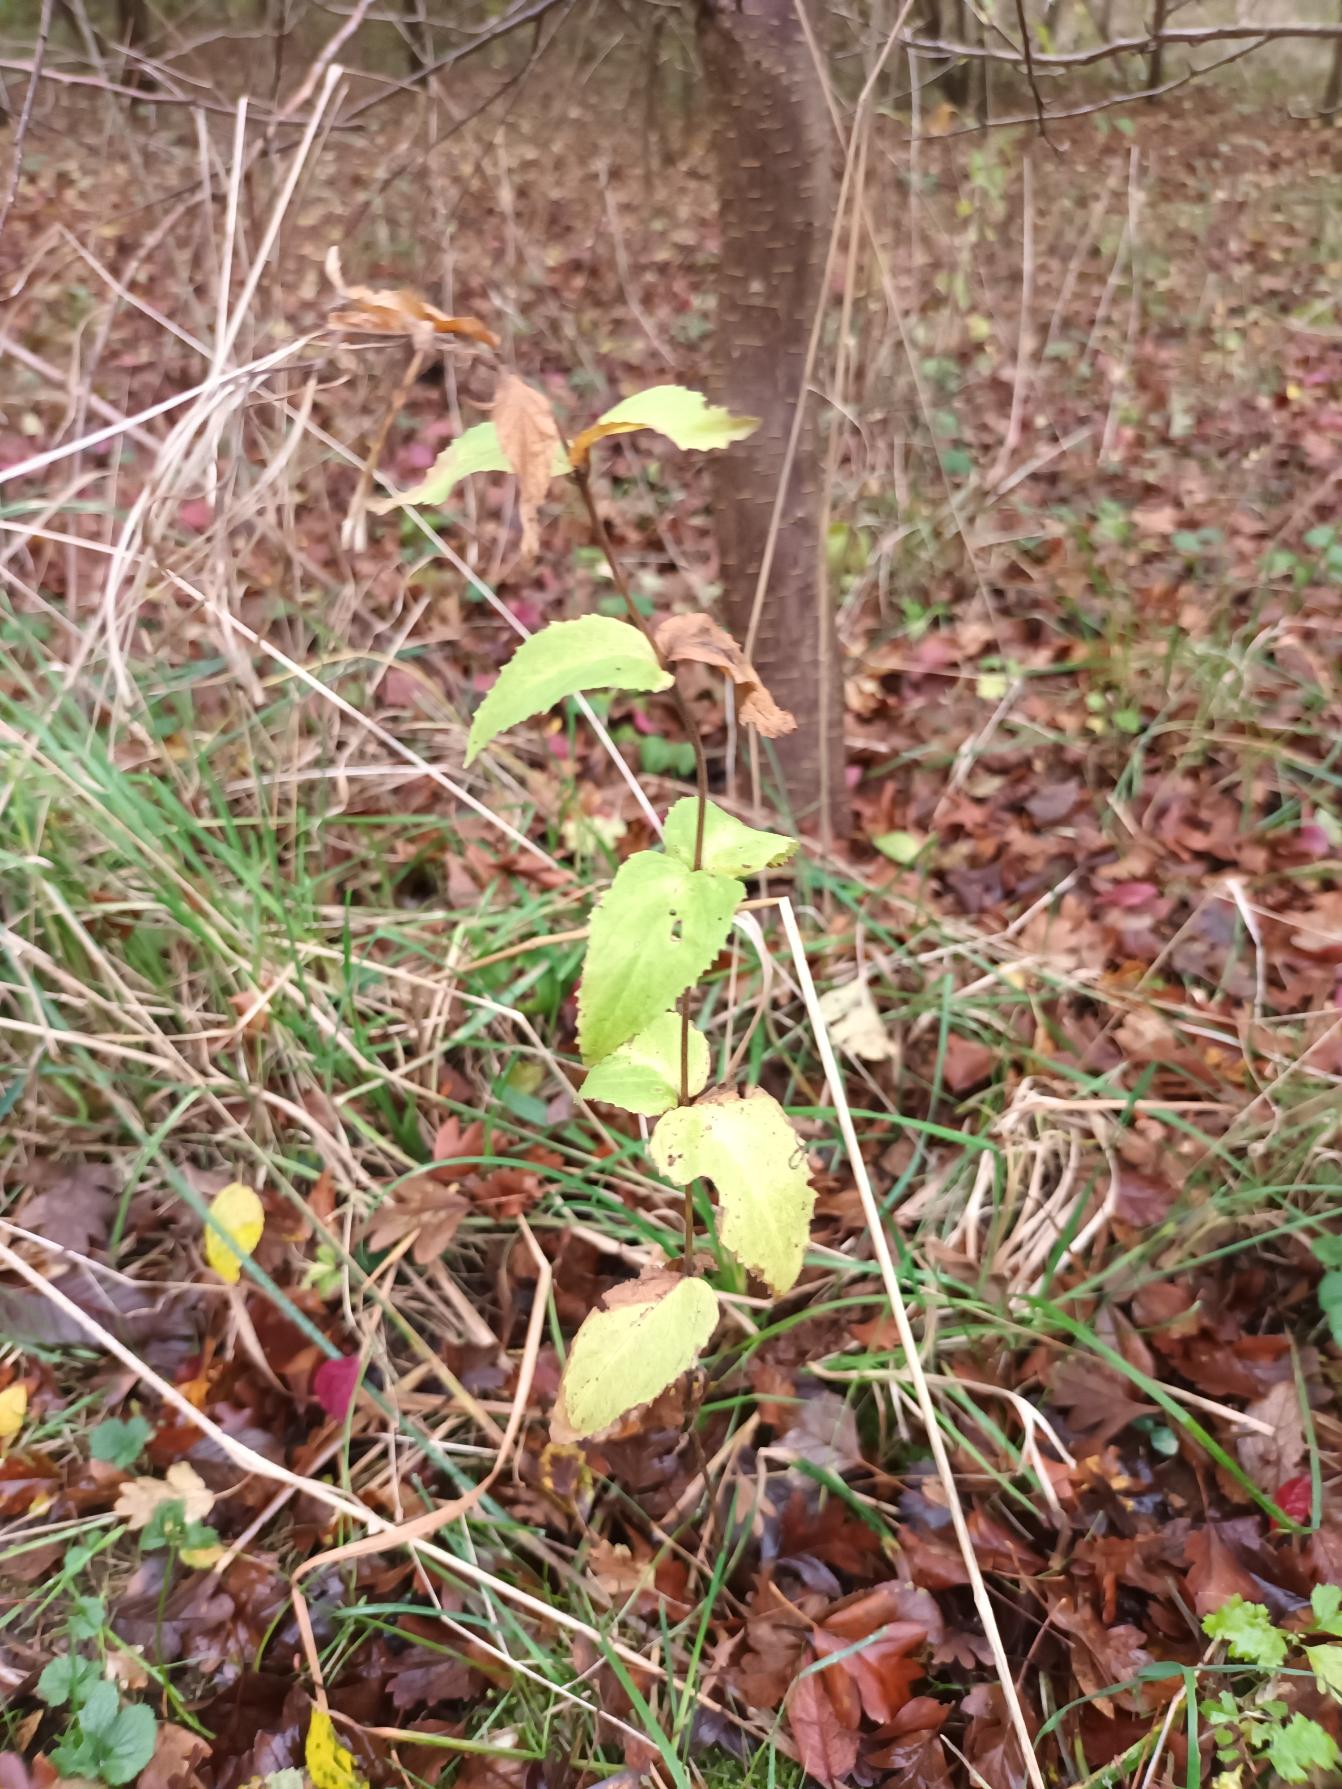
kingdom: Plantae
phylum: Tracheophyta
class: Magnoliopsida
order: Myrtales
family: Onagraceae
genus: Epilobium
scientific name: Epilobium montanum
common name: Glat dueurt
